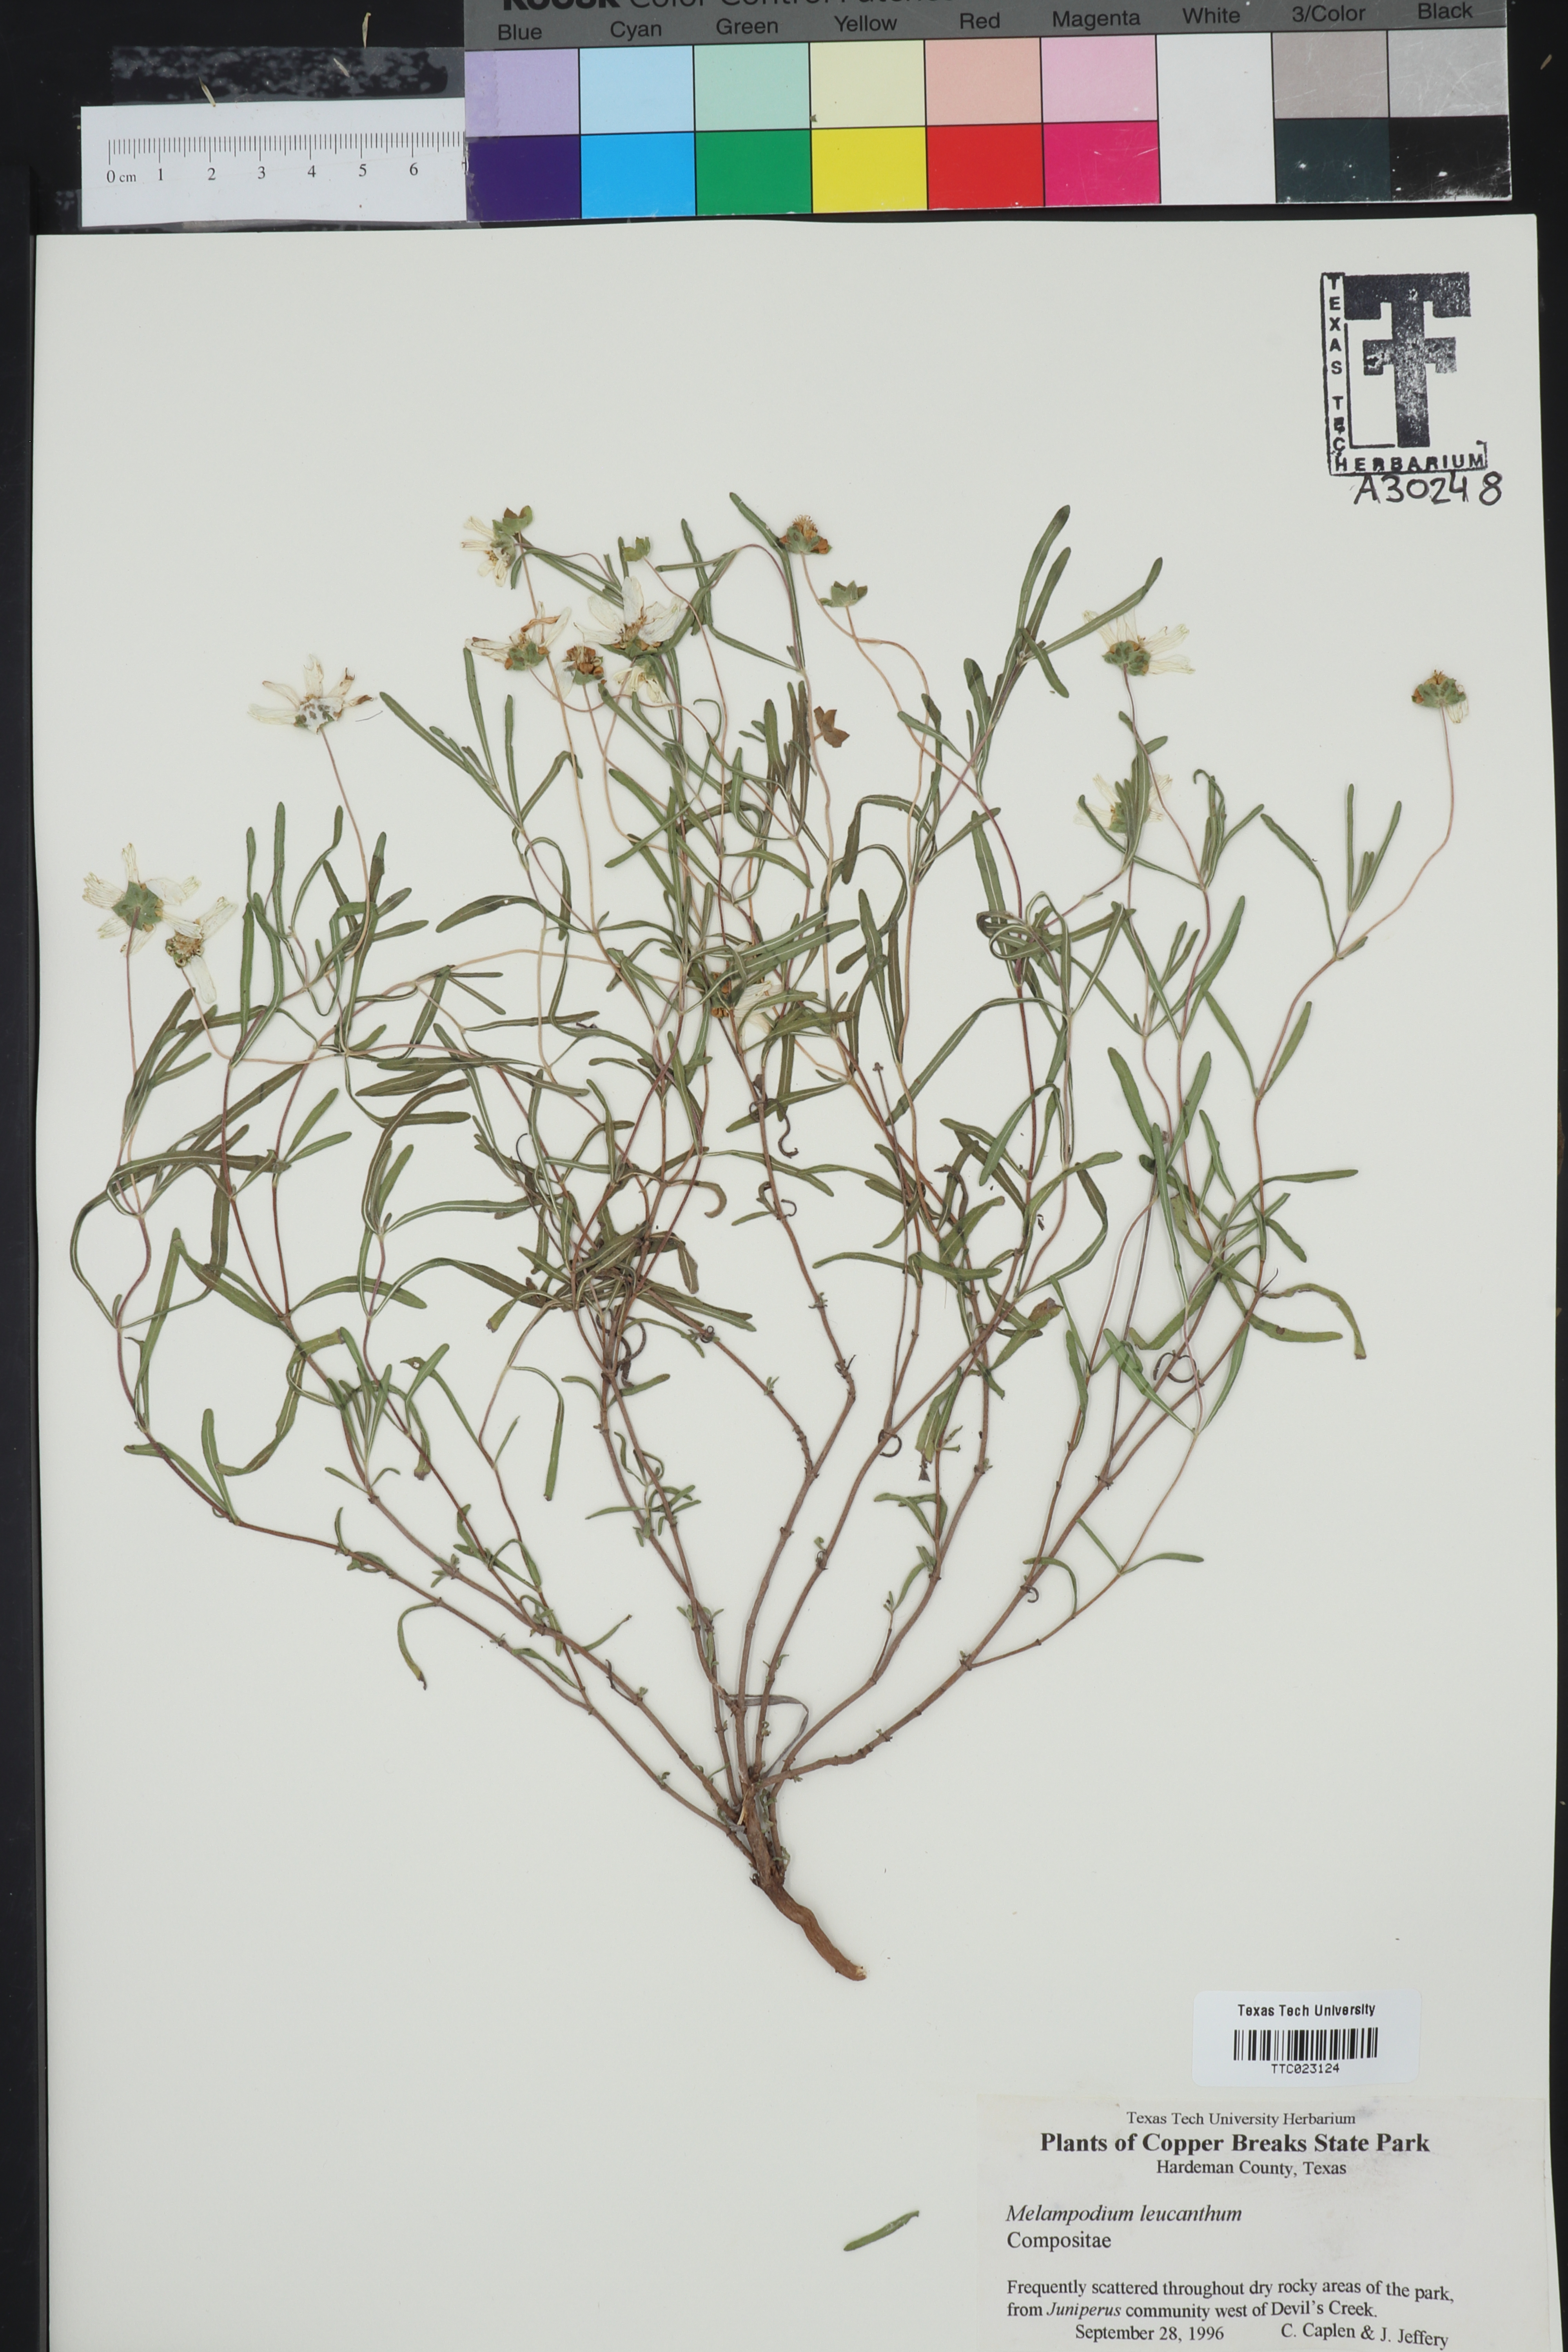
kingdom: Plantae
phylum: Tracheophyta
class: Magnoliopsida
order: Asterales
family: Asteraceae
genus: Melampodium
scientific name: Melampodium leucanthum
